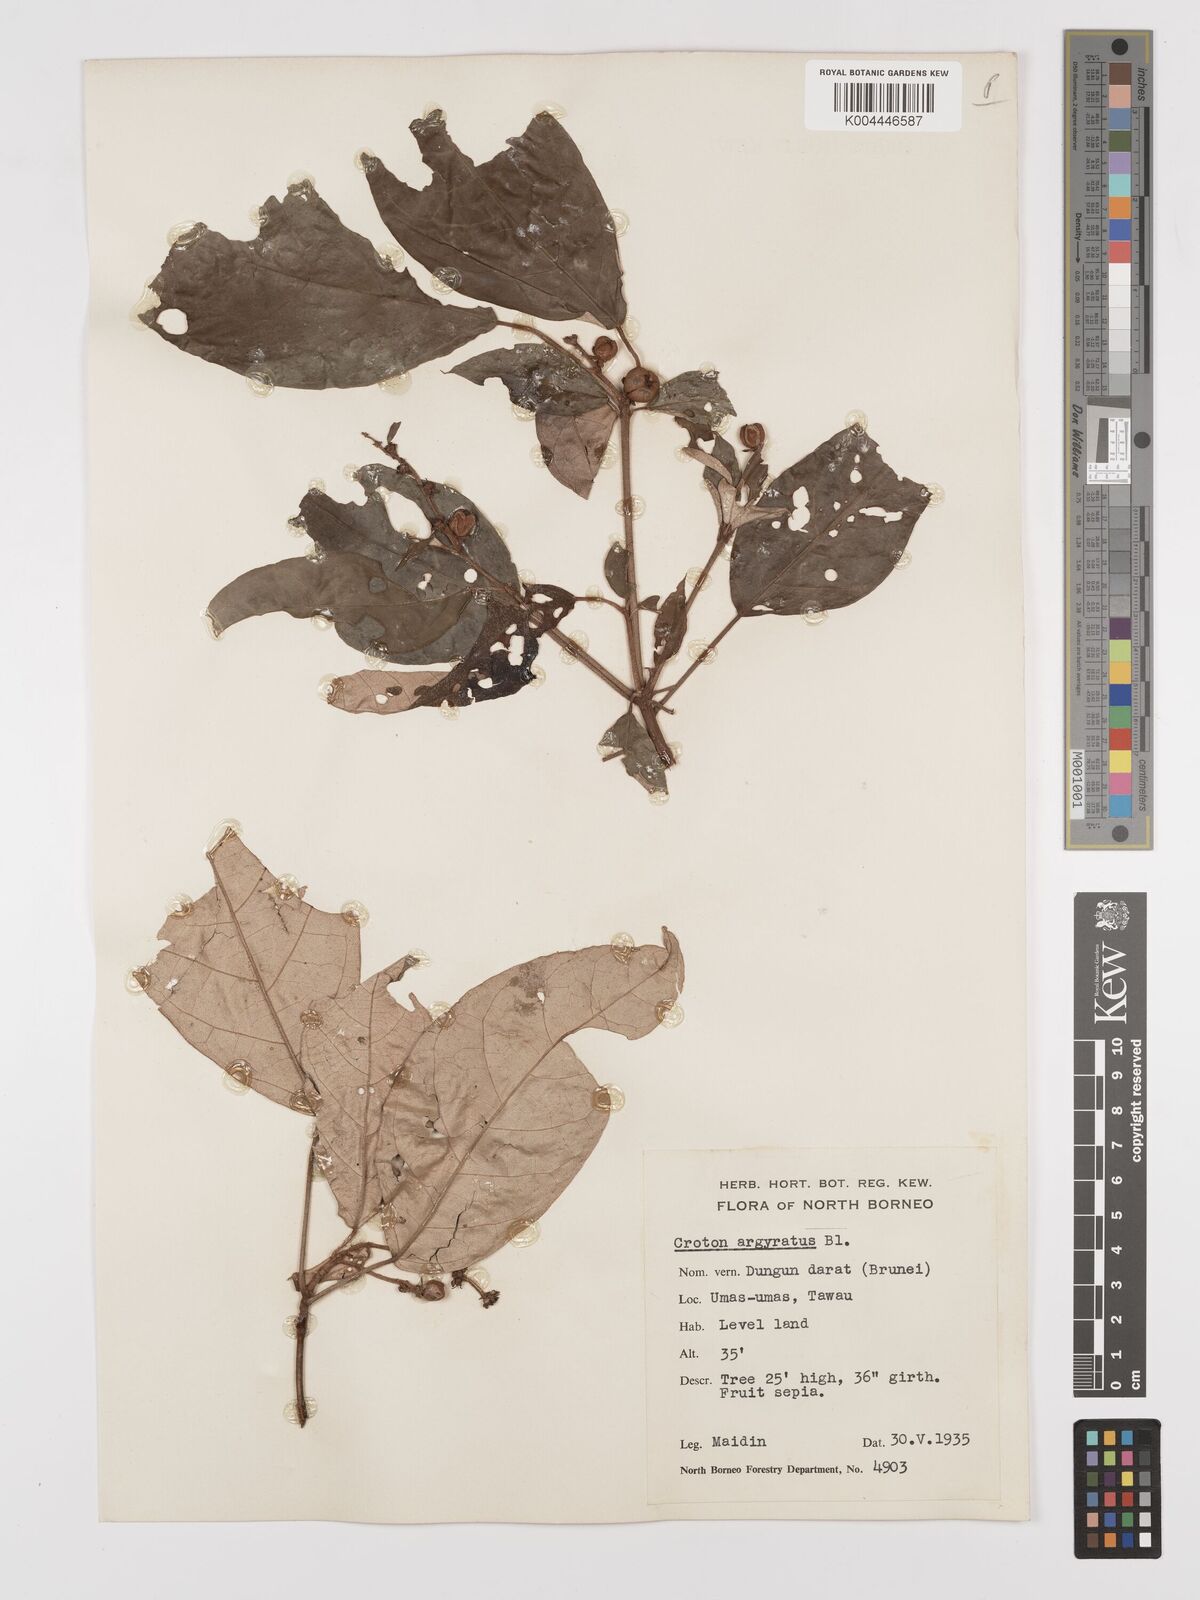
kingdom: Plantae
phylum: Tracheophyta
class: Magnoliopsida
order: Malpighiales
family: Euphorbiaceae
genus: Croton
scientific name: Croton argyratus
